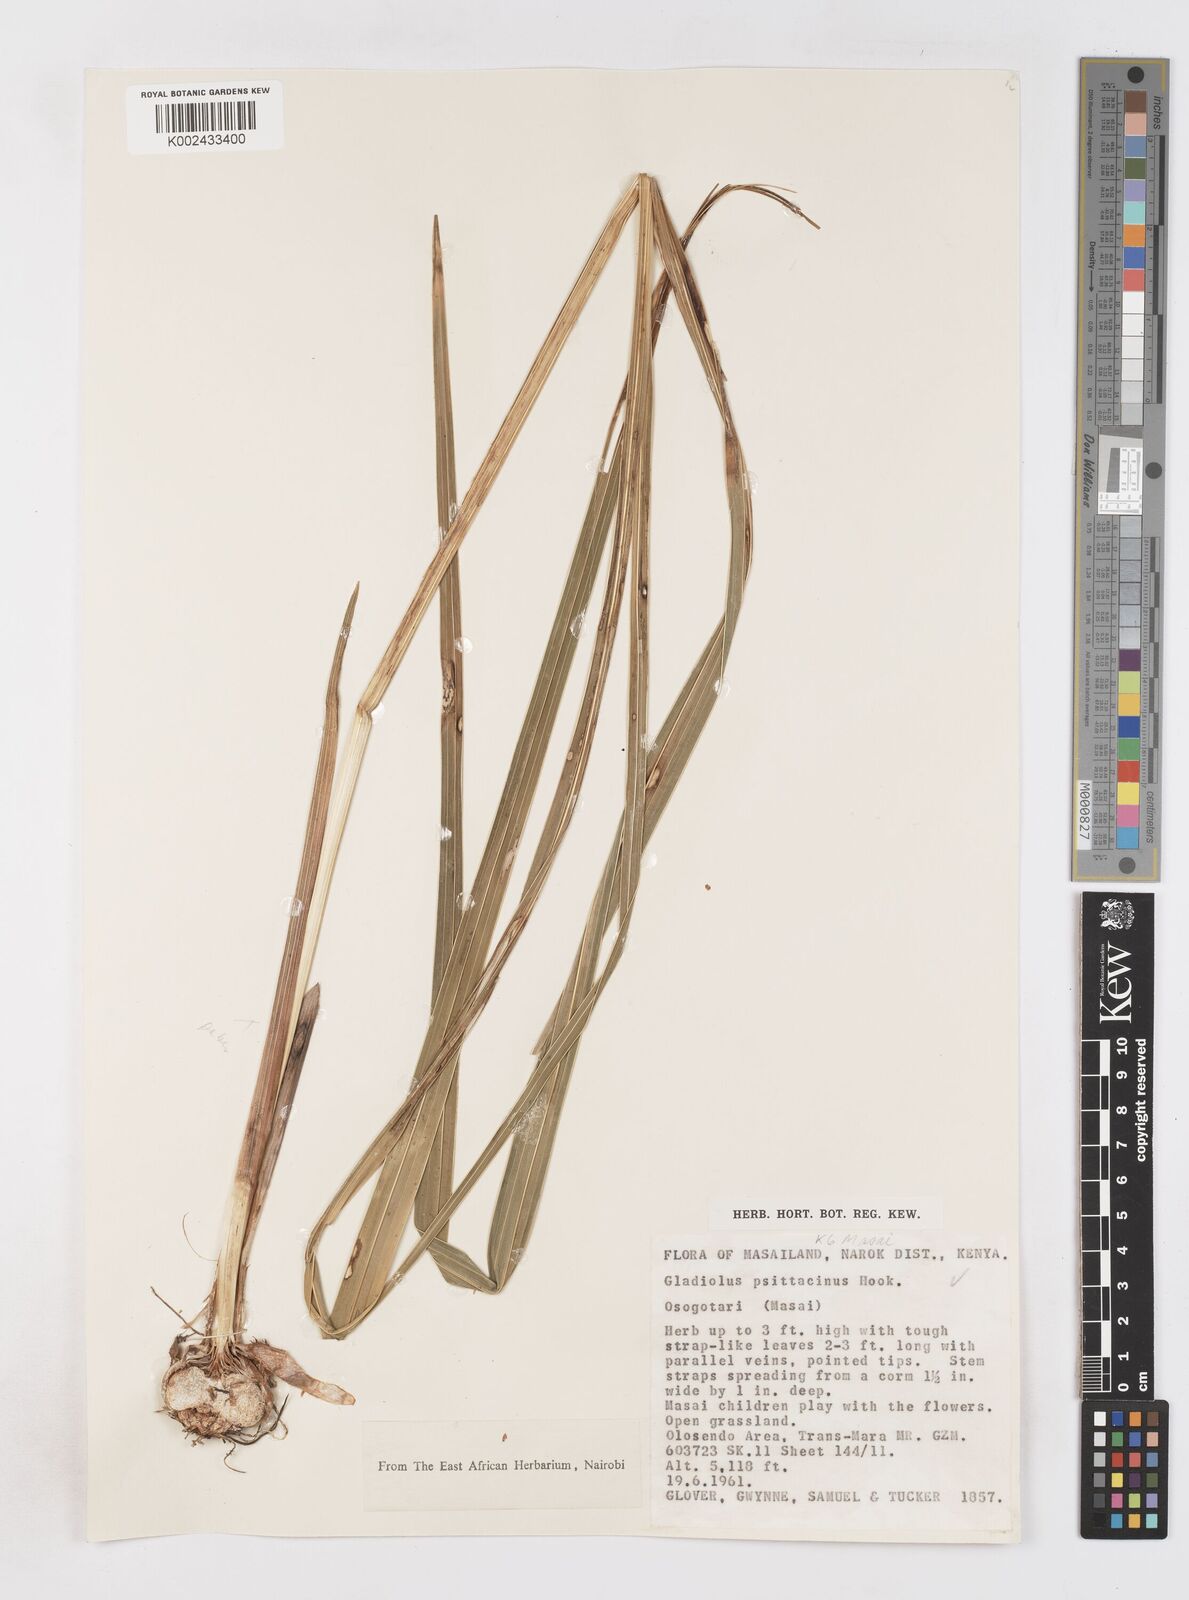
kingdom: Plantae
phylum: Tracheophyta
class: Liliopsida
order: Asparagales
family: Iridaceae
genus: Gladiolus
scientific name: Gladiolus dalenii
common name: Cornflag
